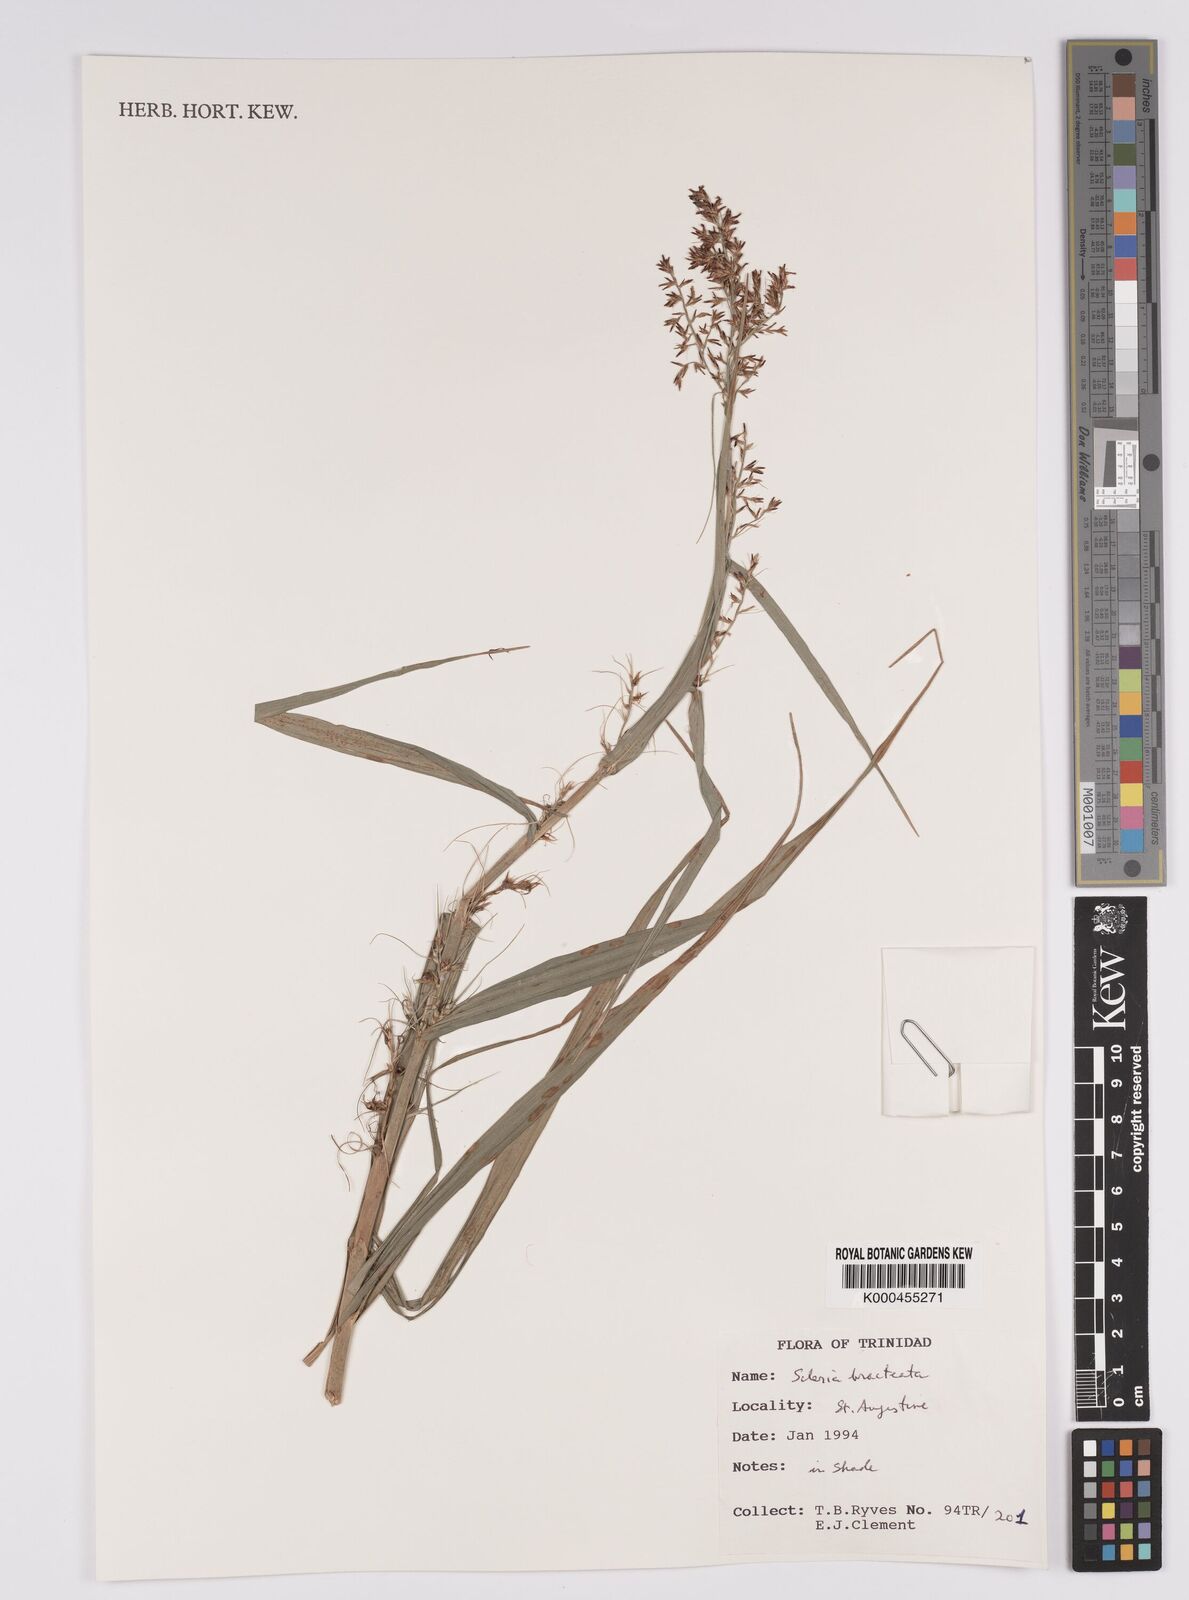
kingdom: Plantae
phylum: Tracheophyta
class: Liliopsida
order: Poales
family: Cyperaceae
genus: Scleria
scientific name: Scleria bracteata
